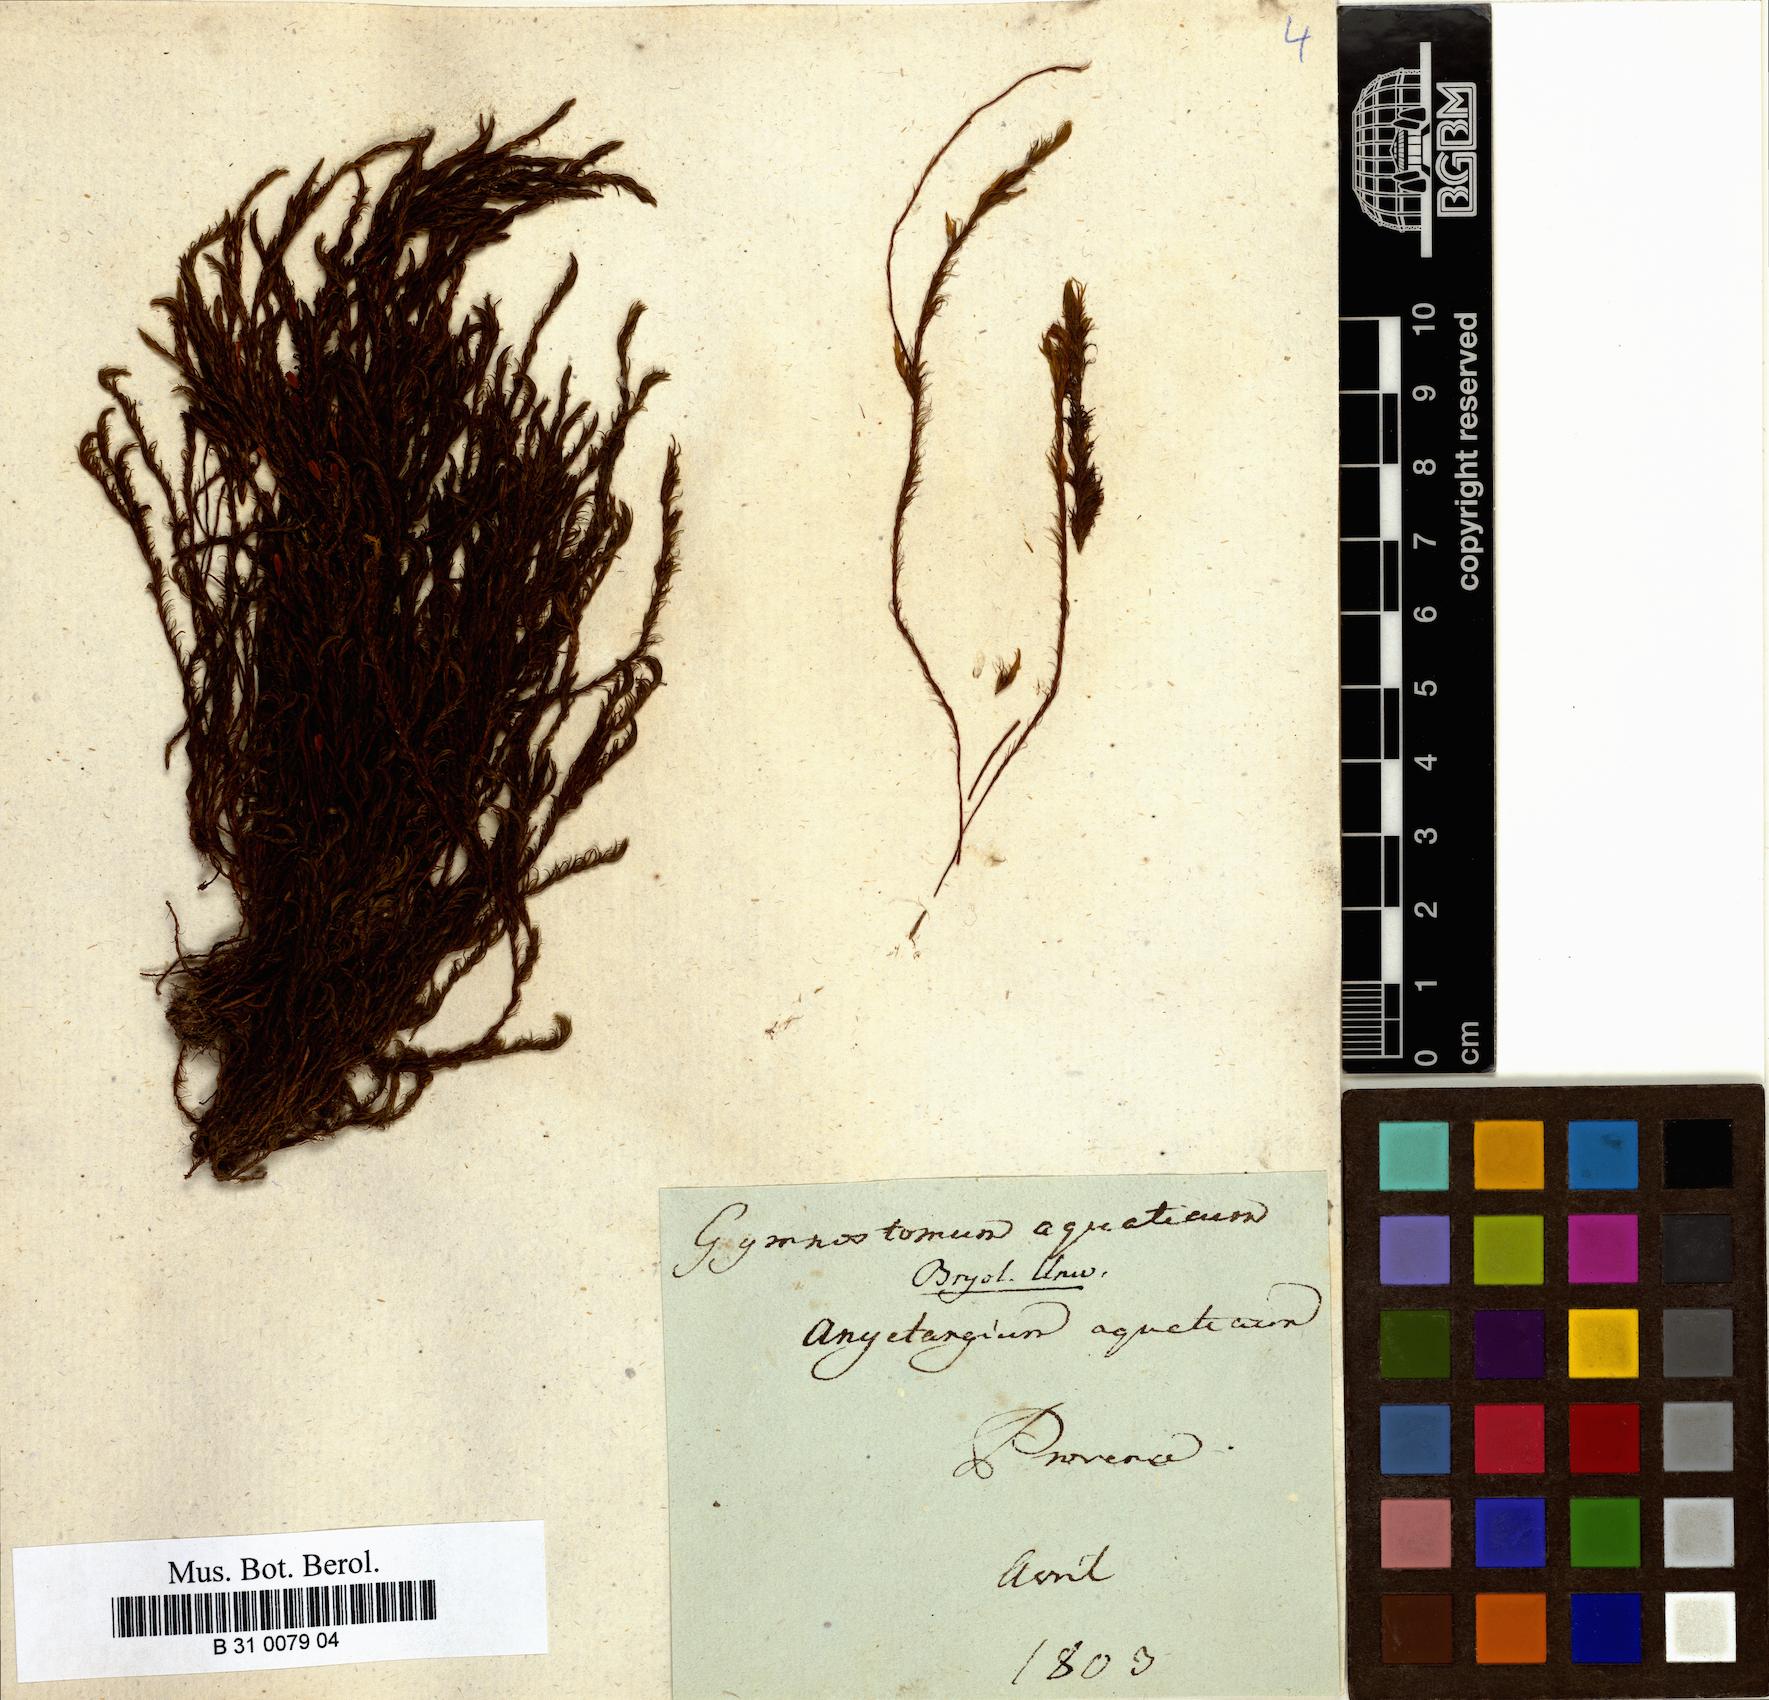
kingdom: Plantae
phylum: Bryophyta
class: Bryopsida
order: Pottiales
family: Pottiaceae
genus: Cinclidotus
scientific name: Cinclidotus aquaticus
